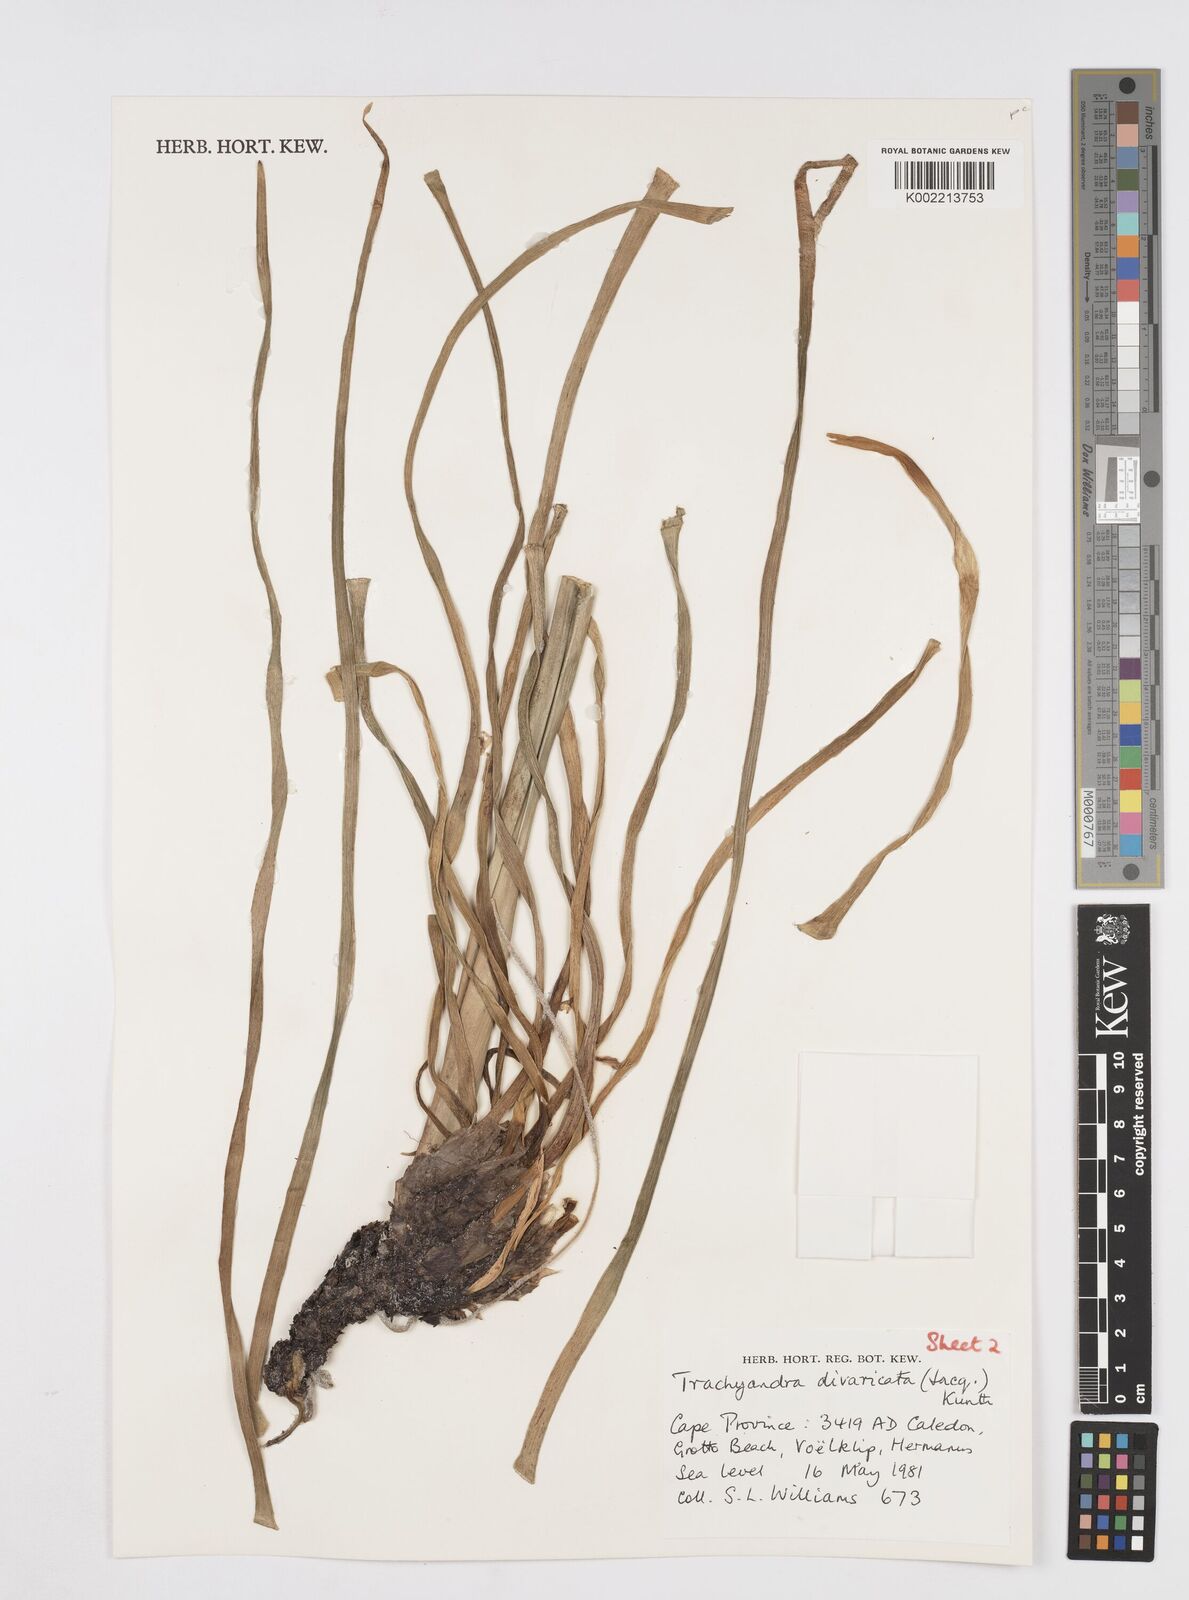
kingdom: Plantae
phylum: Tracheophyta
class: Liliopsida
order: Asparagales
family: Asphodelaceae
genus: Trachyandra
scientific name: Trachyandra divaricata
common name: Dune onionweed
